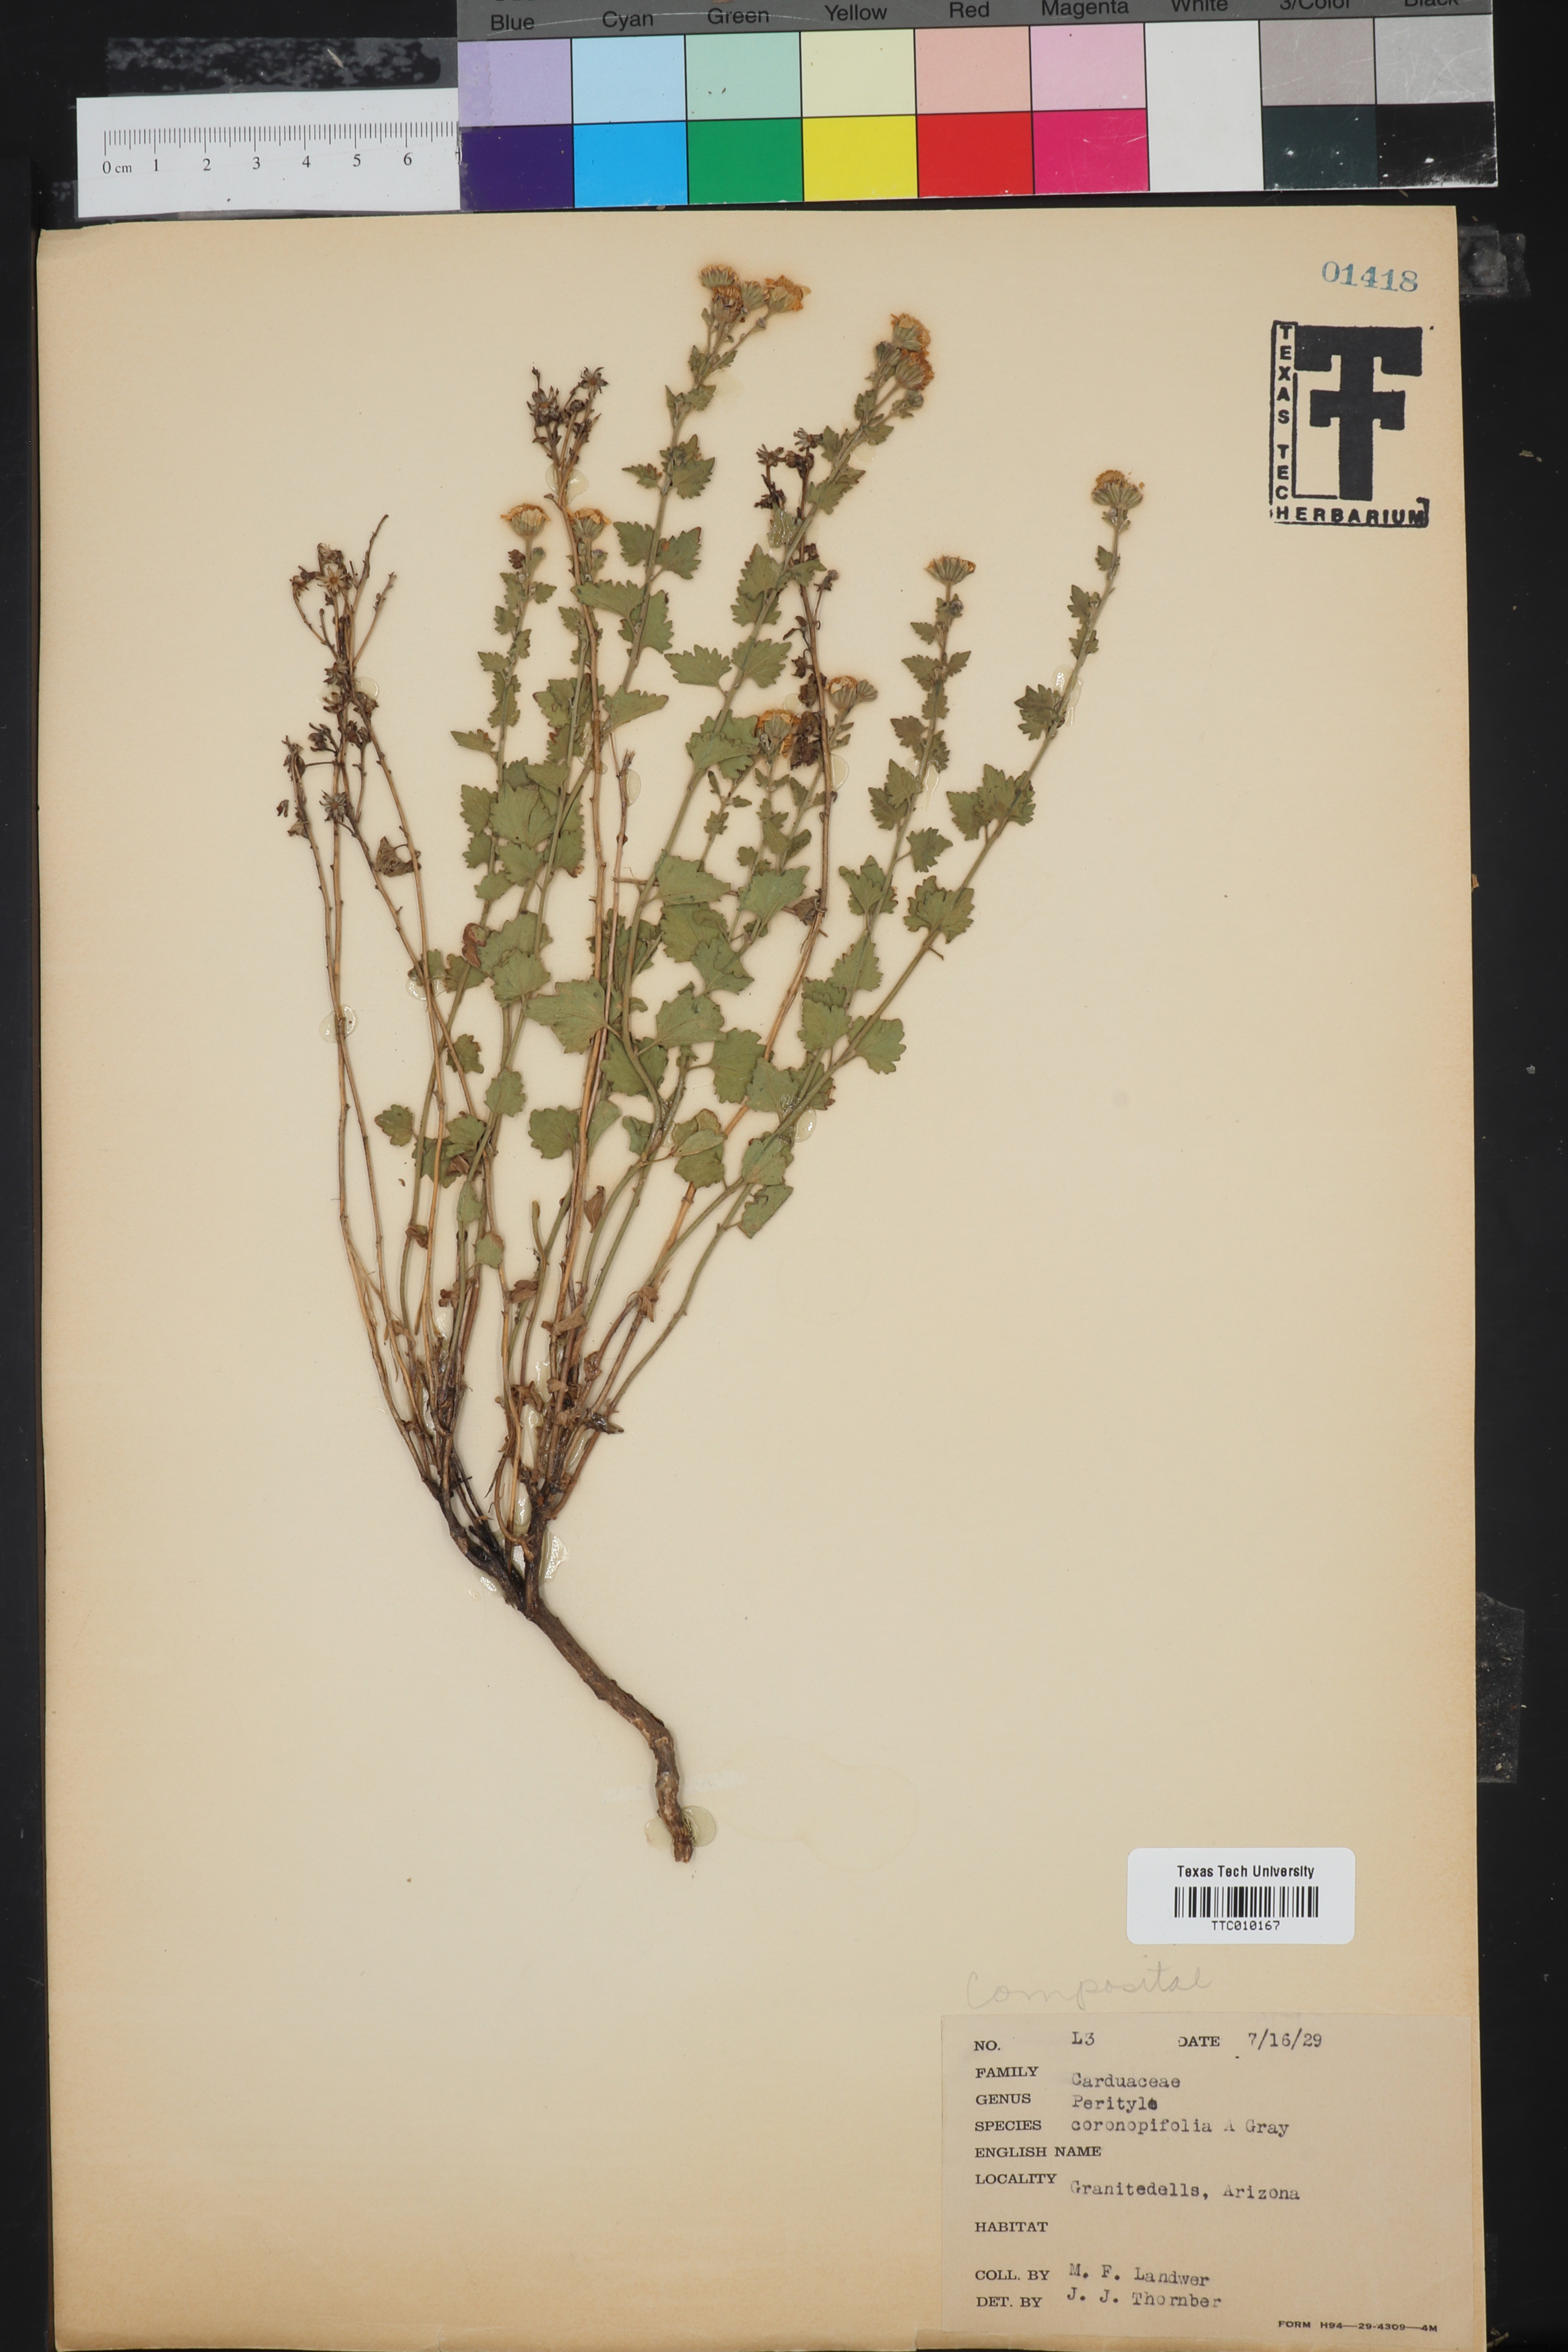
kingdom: Plantae
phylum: Tracheophyta
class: Magnoliopsida
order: Asterales
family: Asteraceae
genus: Galinsogeopsis
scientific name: Galinsogeopsis coronopifolia
